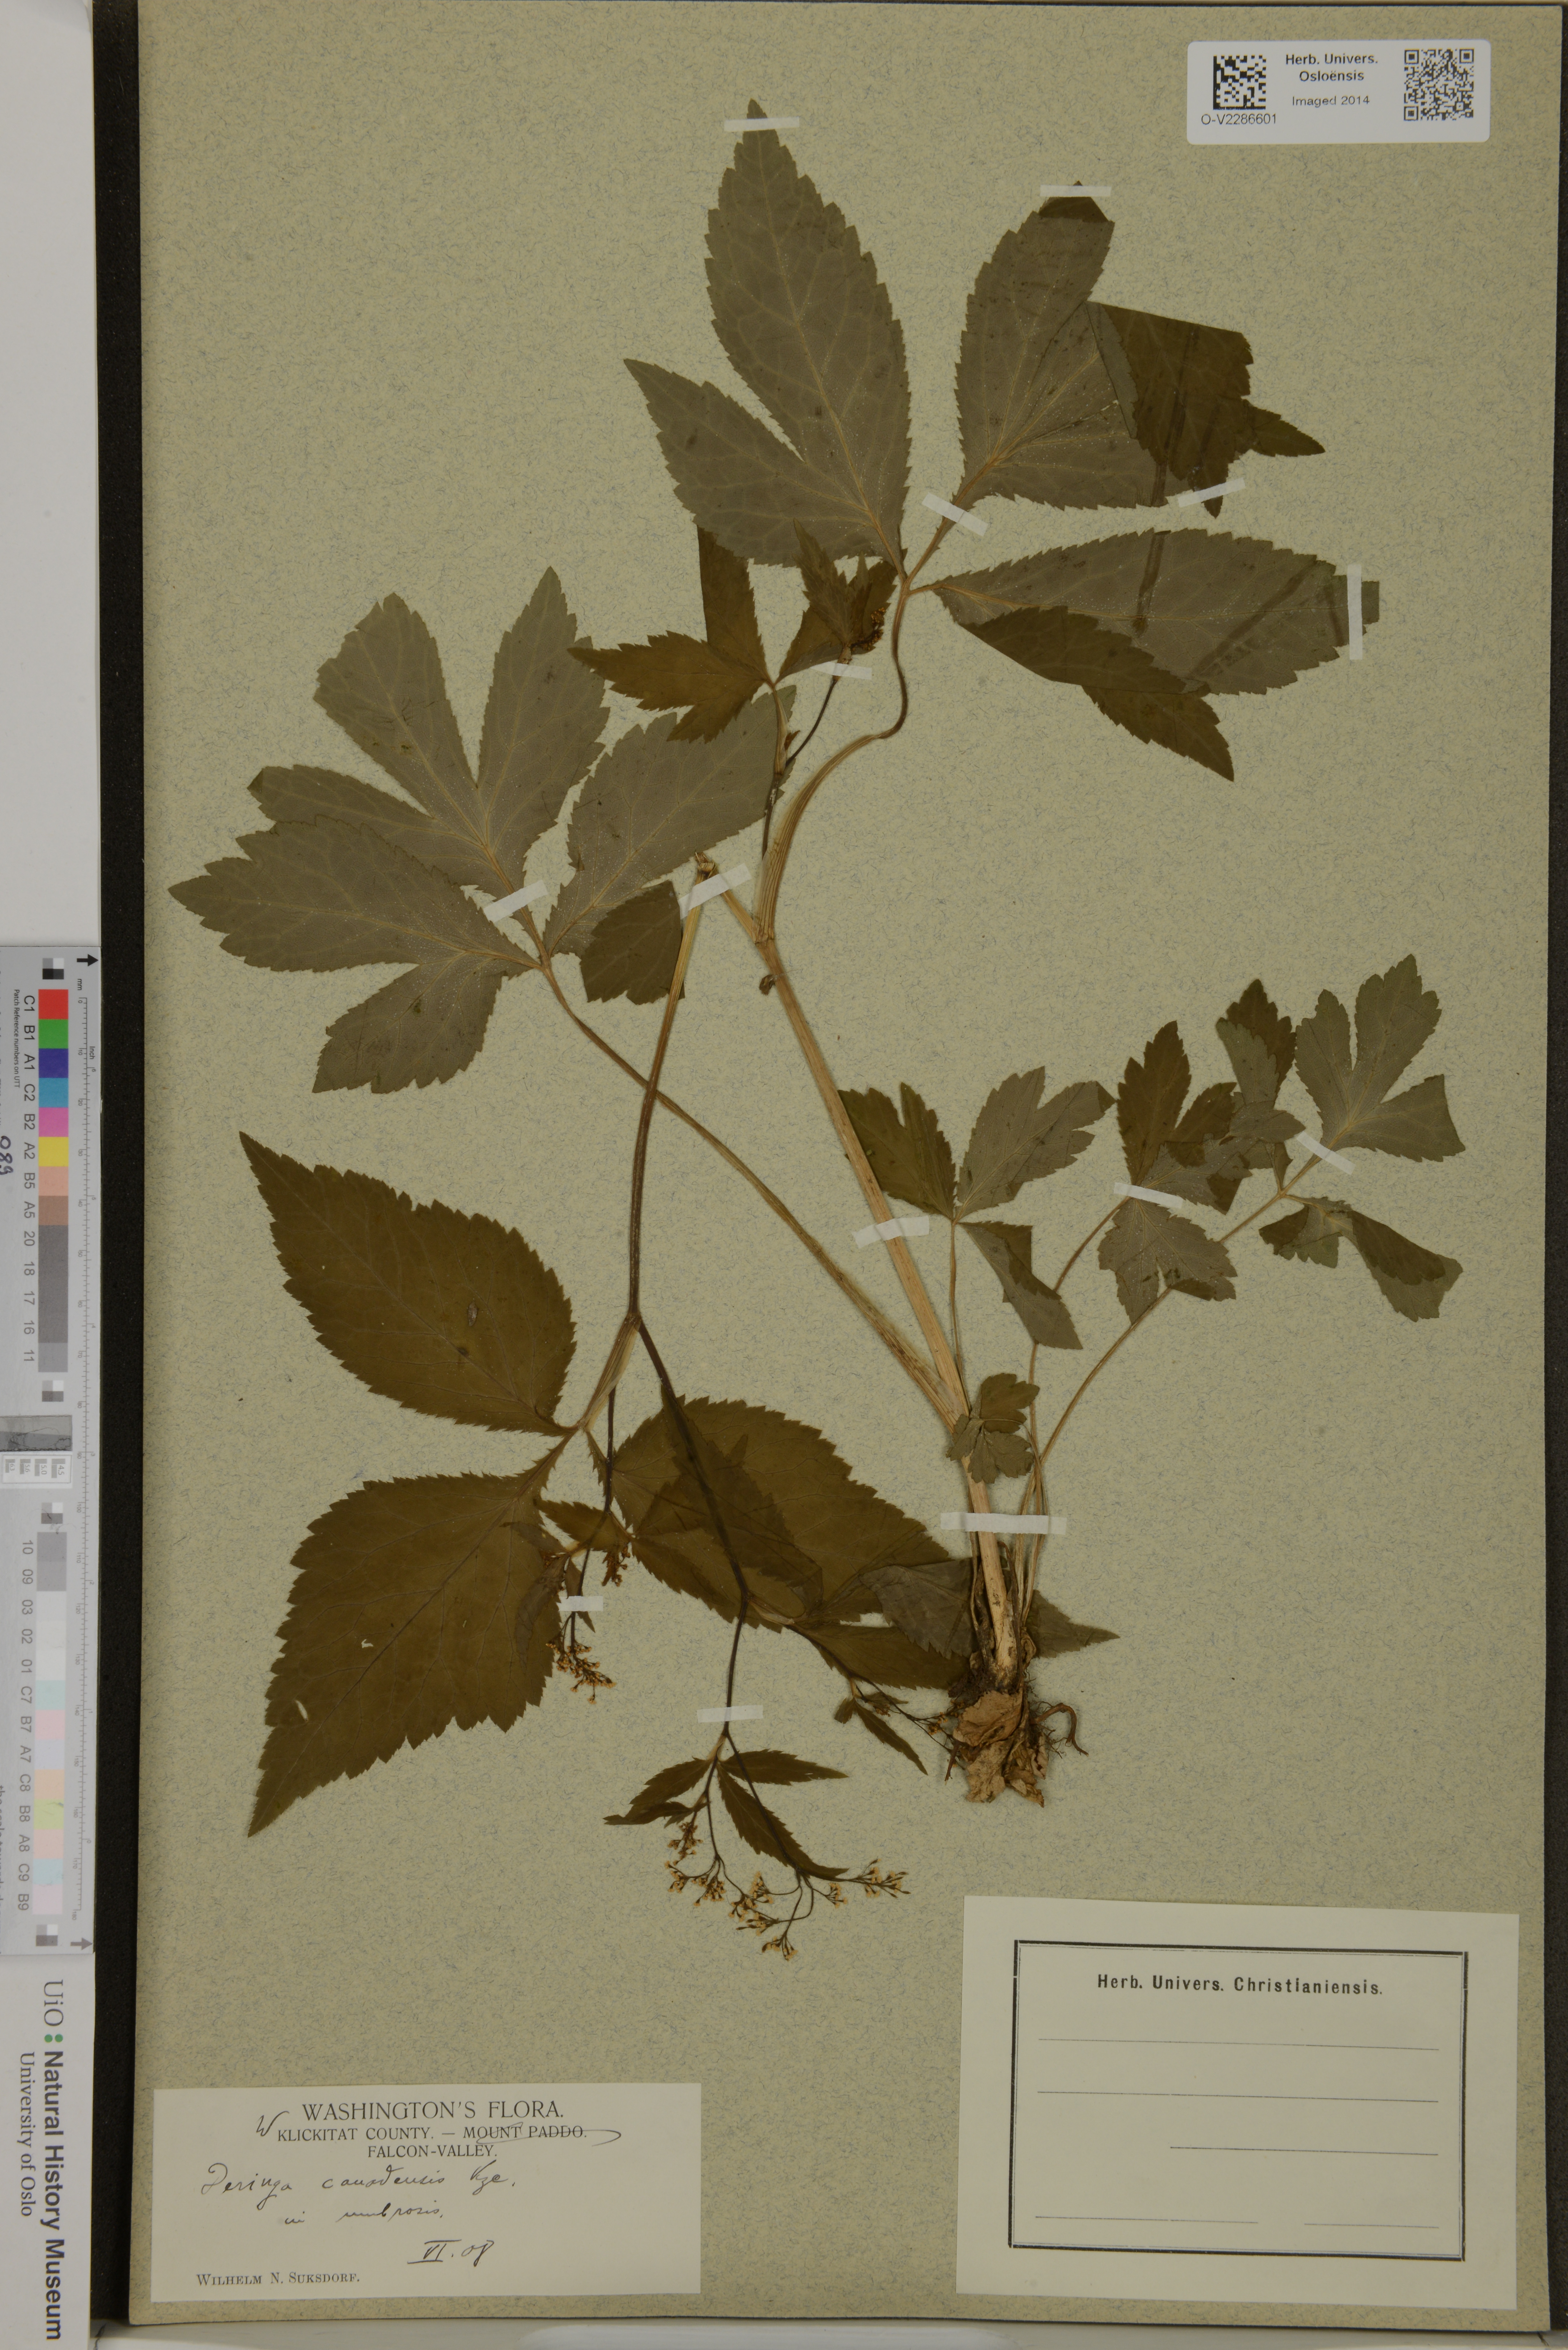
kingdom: Plantae
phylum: Tracheophyta
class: Magnoliopsida
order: Apiales
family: Apiaceae
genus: Cryptotaenia
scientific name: Cryptotaenia canadensis
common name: Honewort
